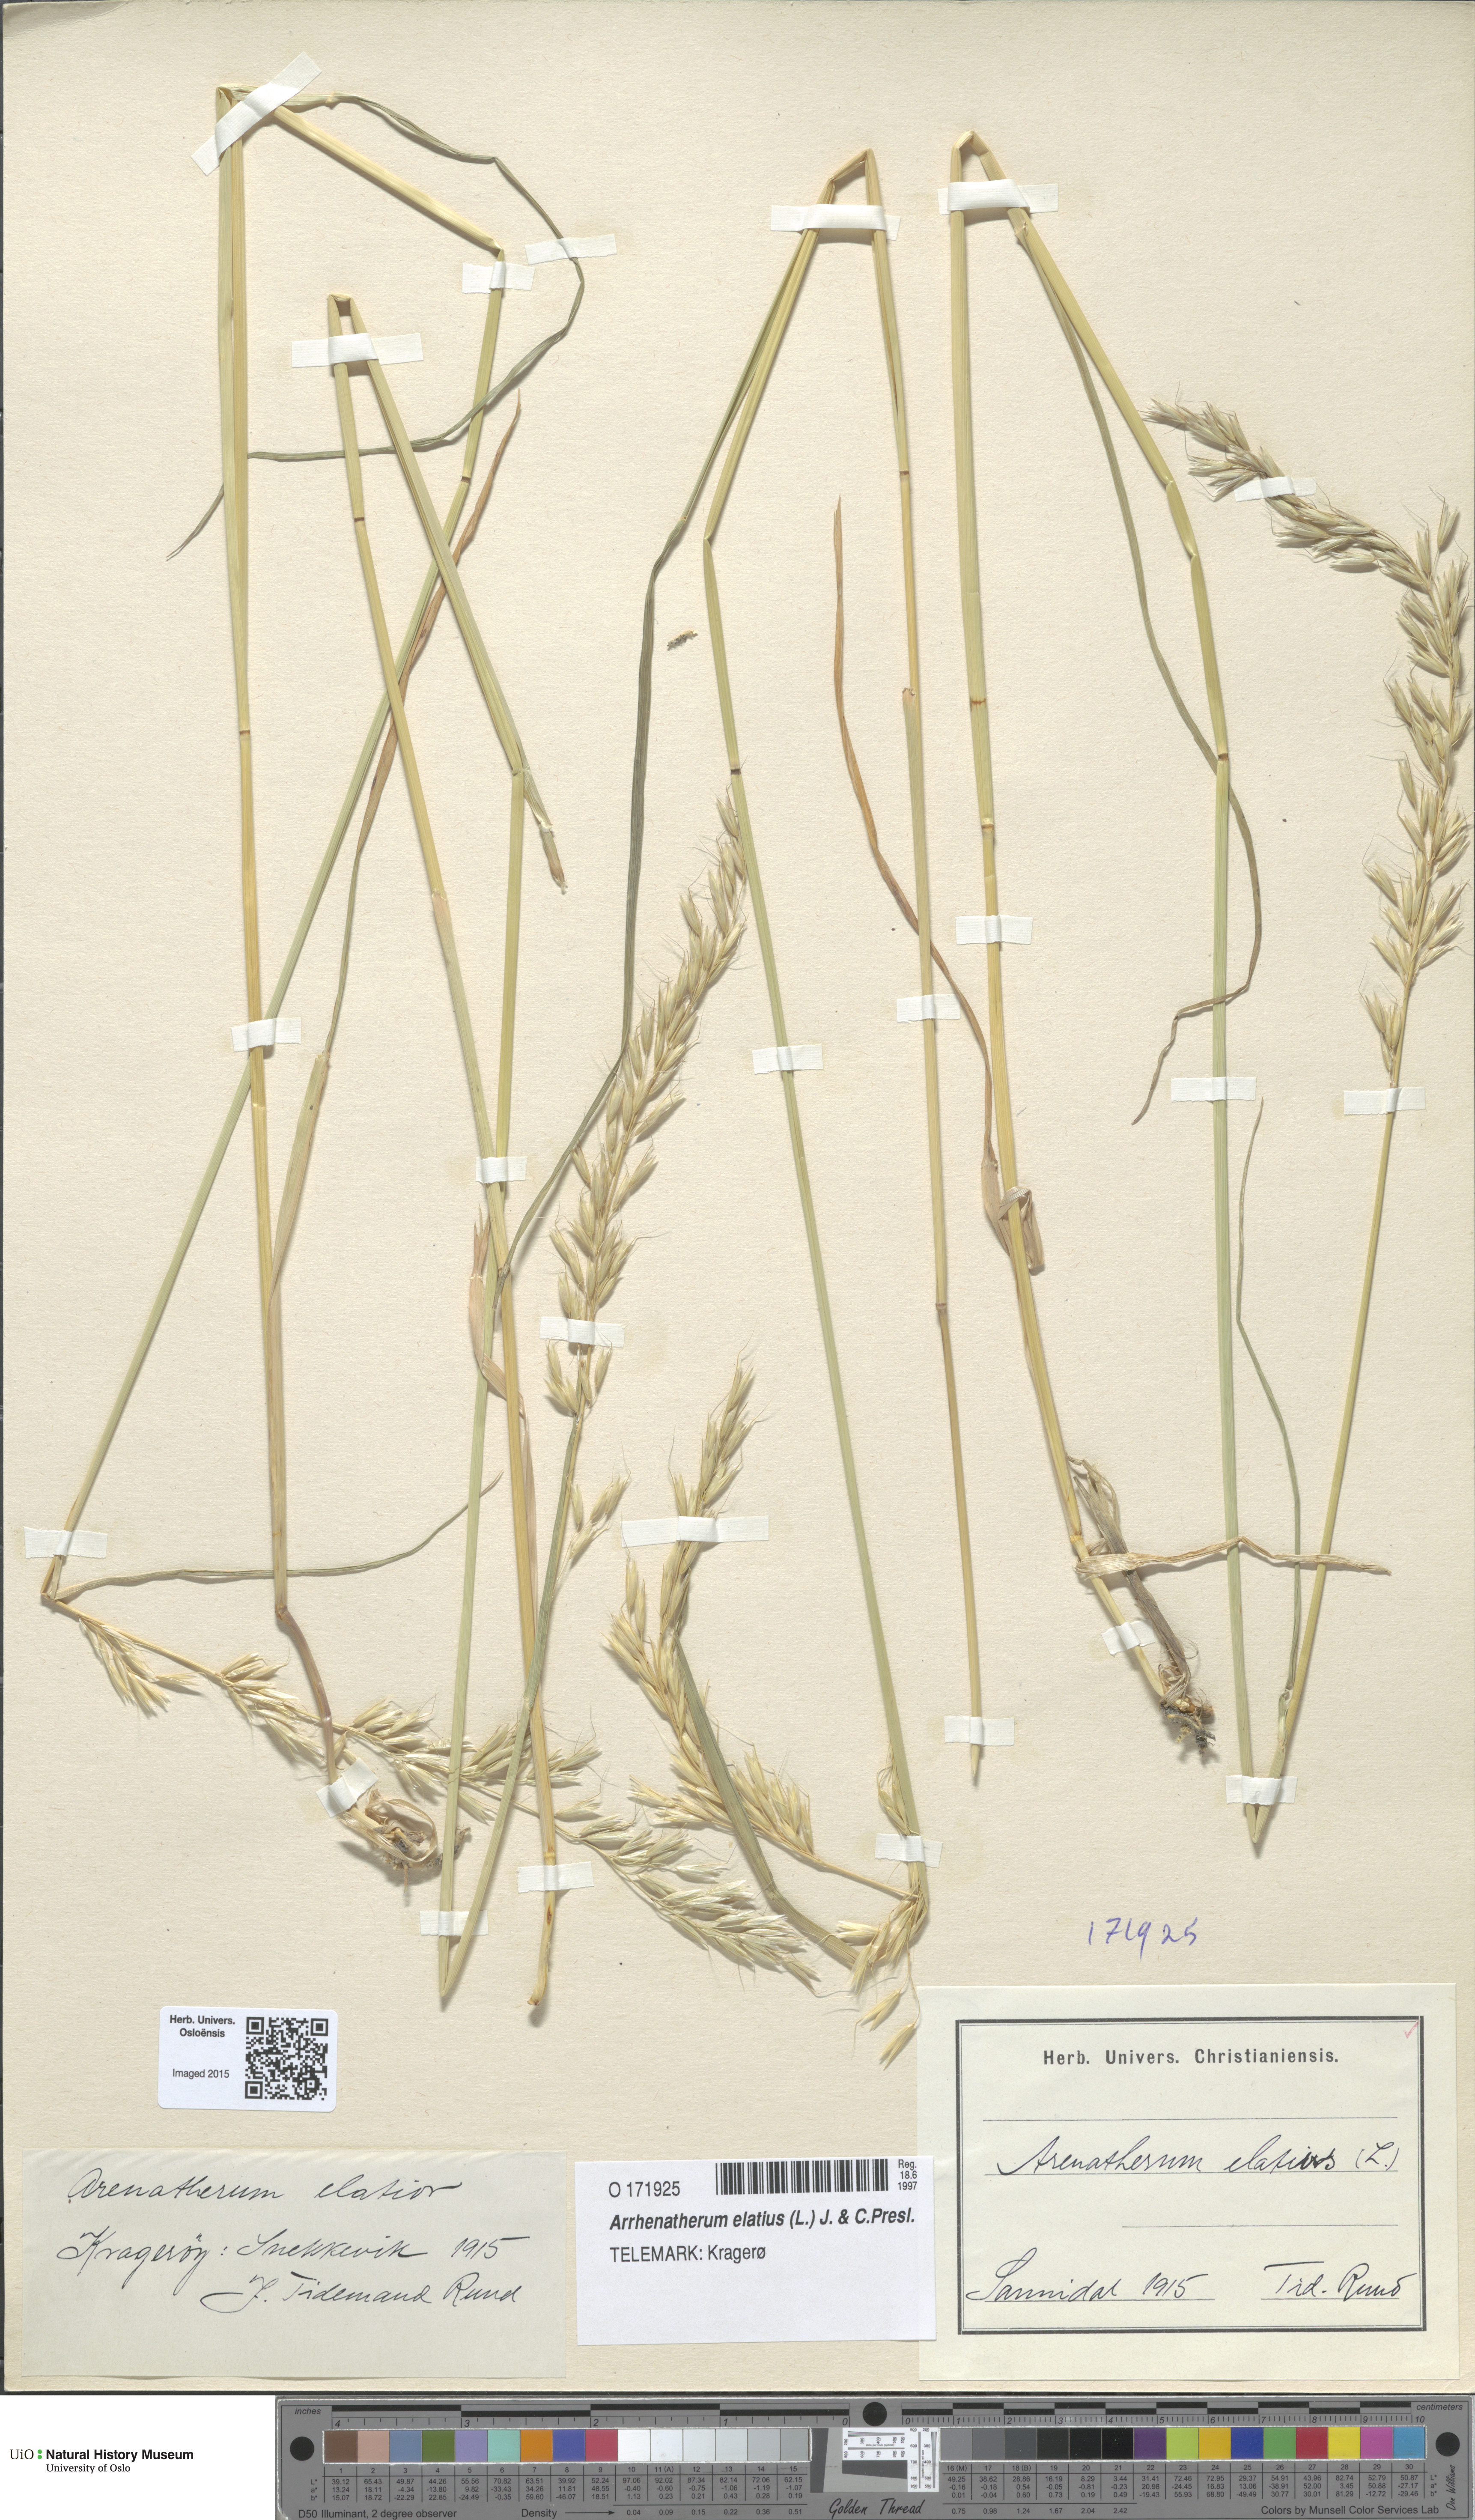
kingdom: Plantae
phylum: Tracheophyta
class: Liliopsida
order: Poales
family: Poaceae
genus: Arrhenatherum
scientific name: Arrhenatherum elatius
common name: Tall oatgrass
